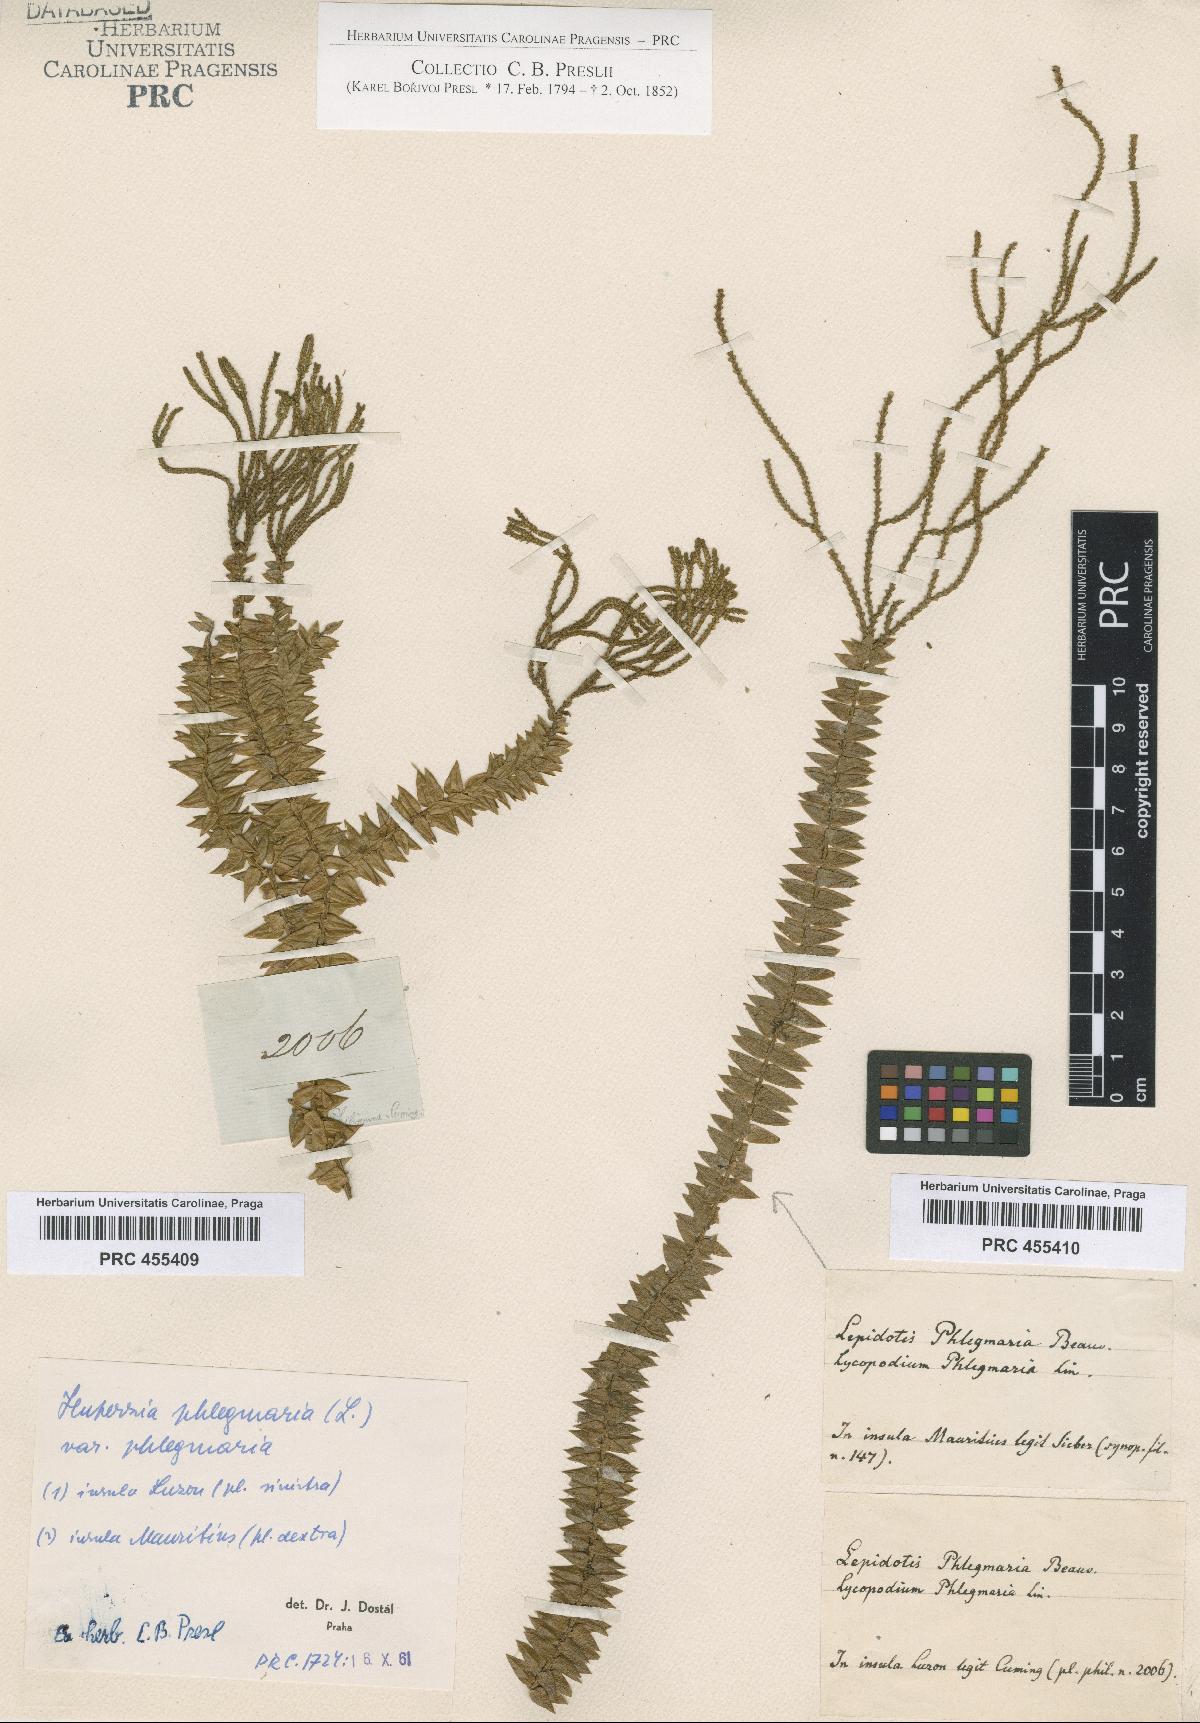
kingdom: Plantae
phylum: Tracheophyta
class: Lycopodiopsida
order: Lycopodiales
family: Lycopodiaceae
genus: Phlegmariurus
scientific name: Phlegmariurus phlegmaria
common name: Coarse tassel-fern
